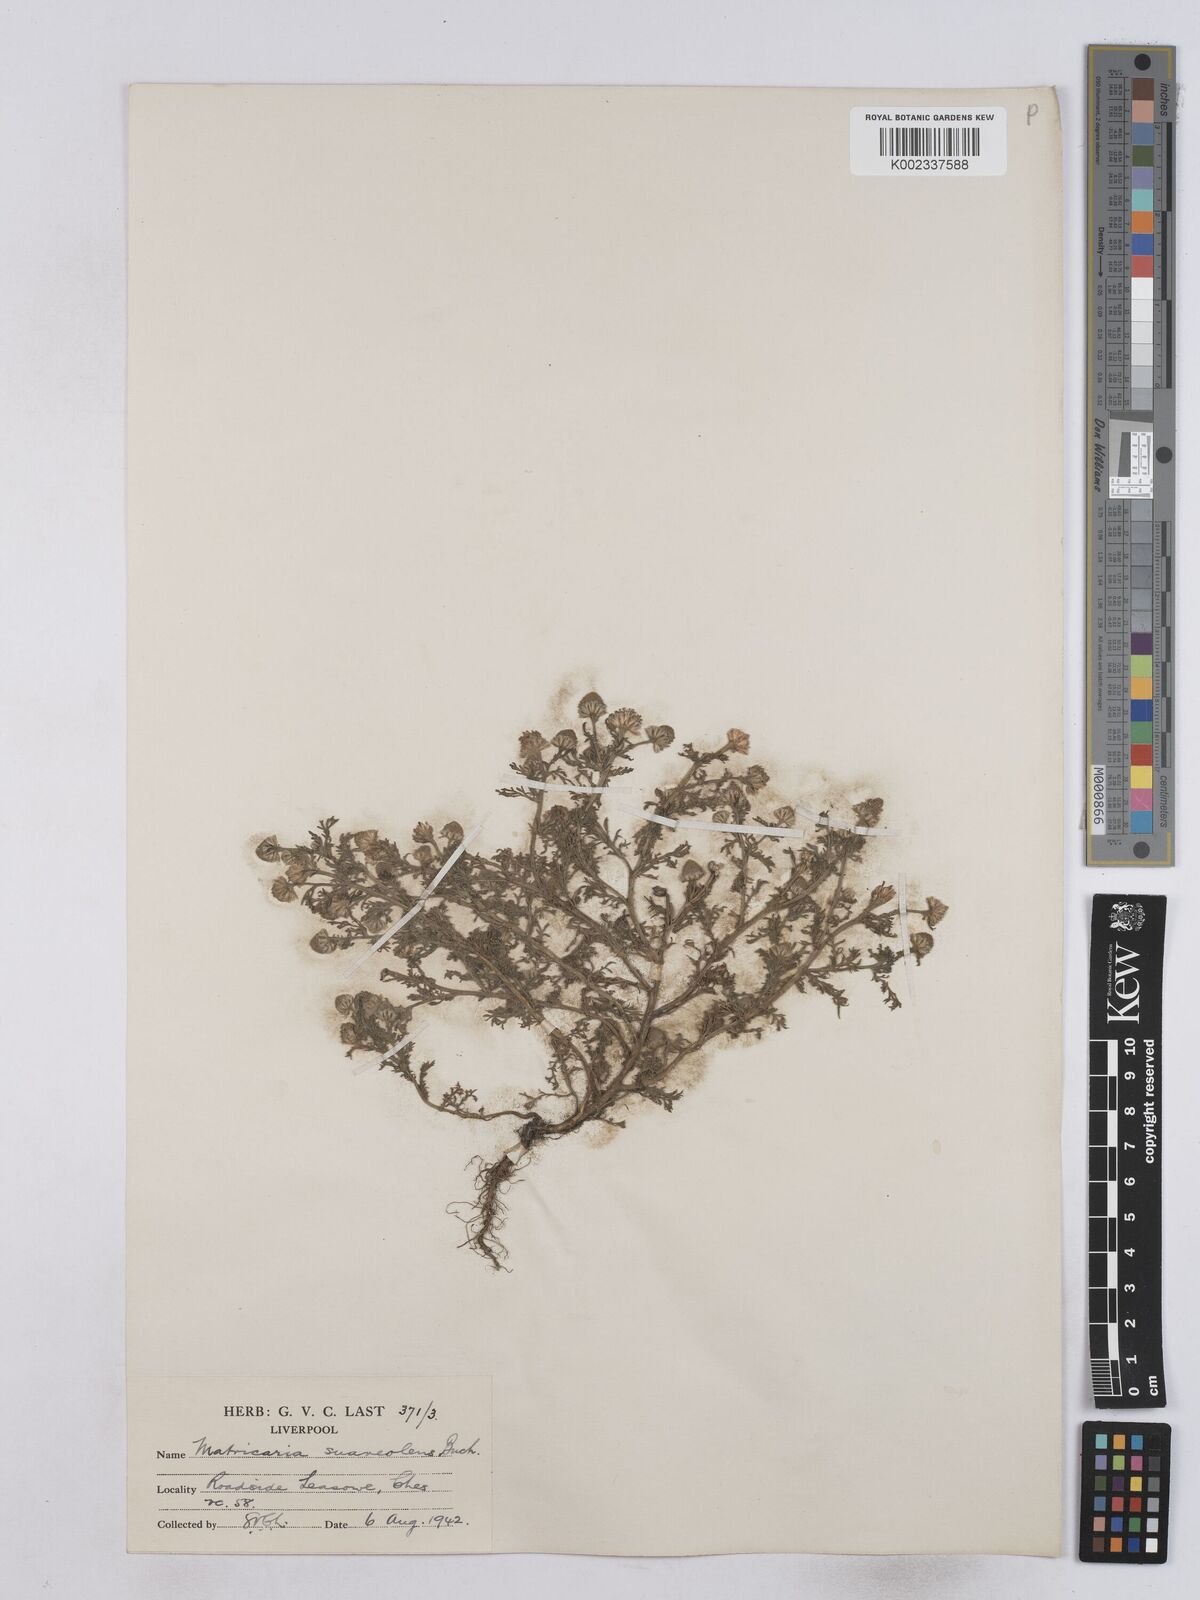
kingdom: Plantae
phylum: Tracheophyta
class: Magnoliopsida
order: Asterales
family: Asteraceae
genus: Matricaria
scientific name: Matricaria discoidea
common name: Disc mayweed
